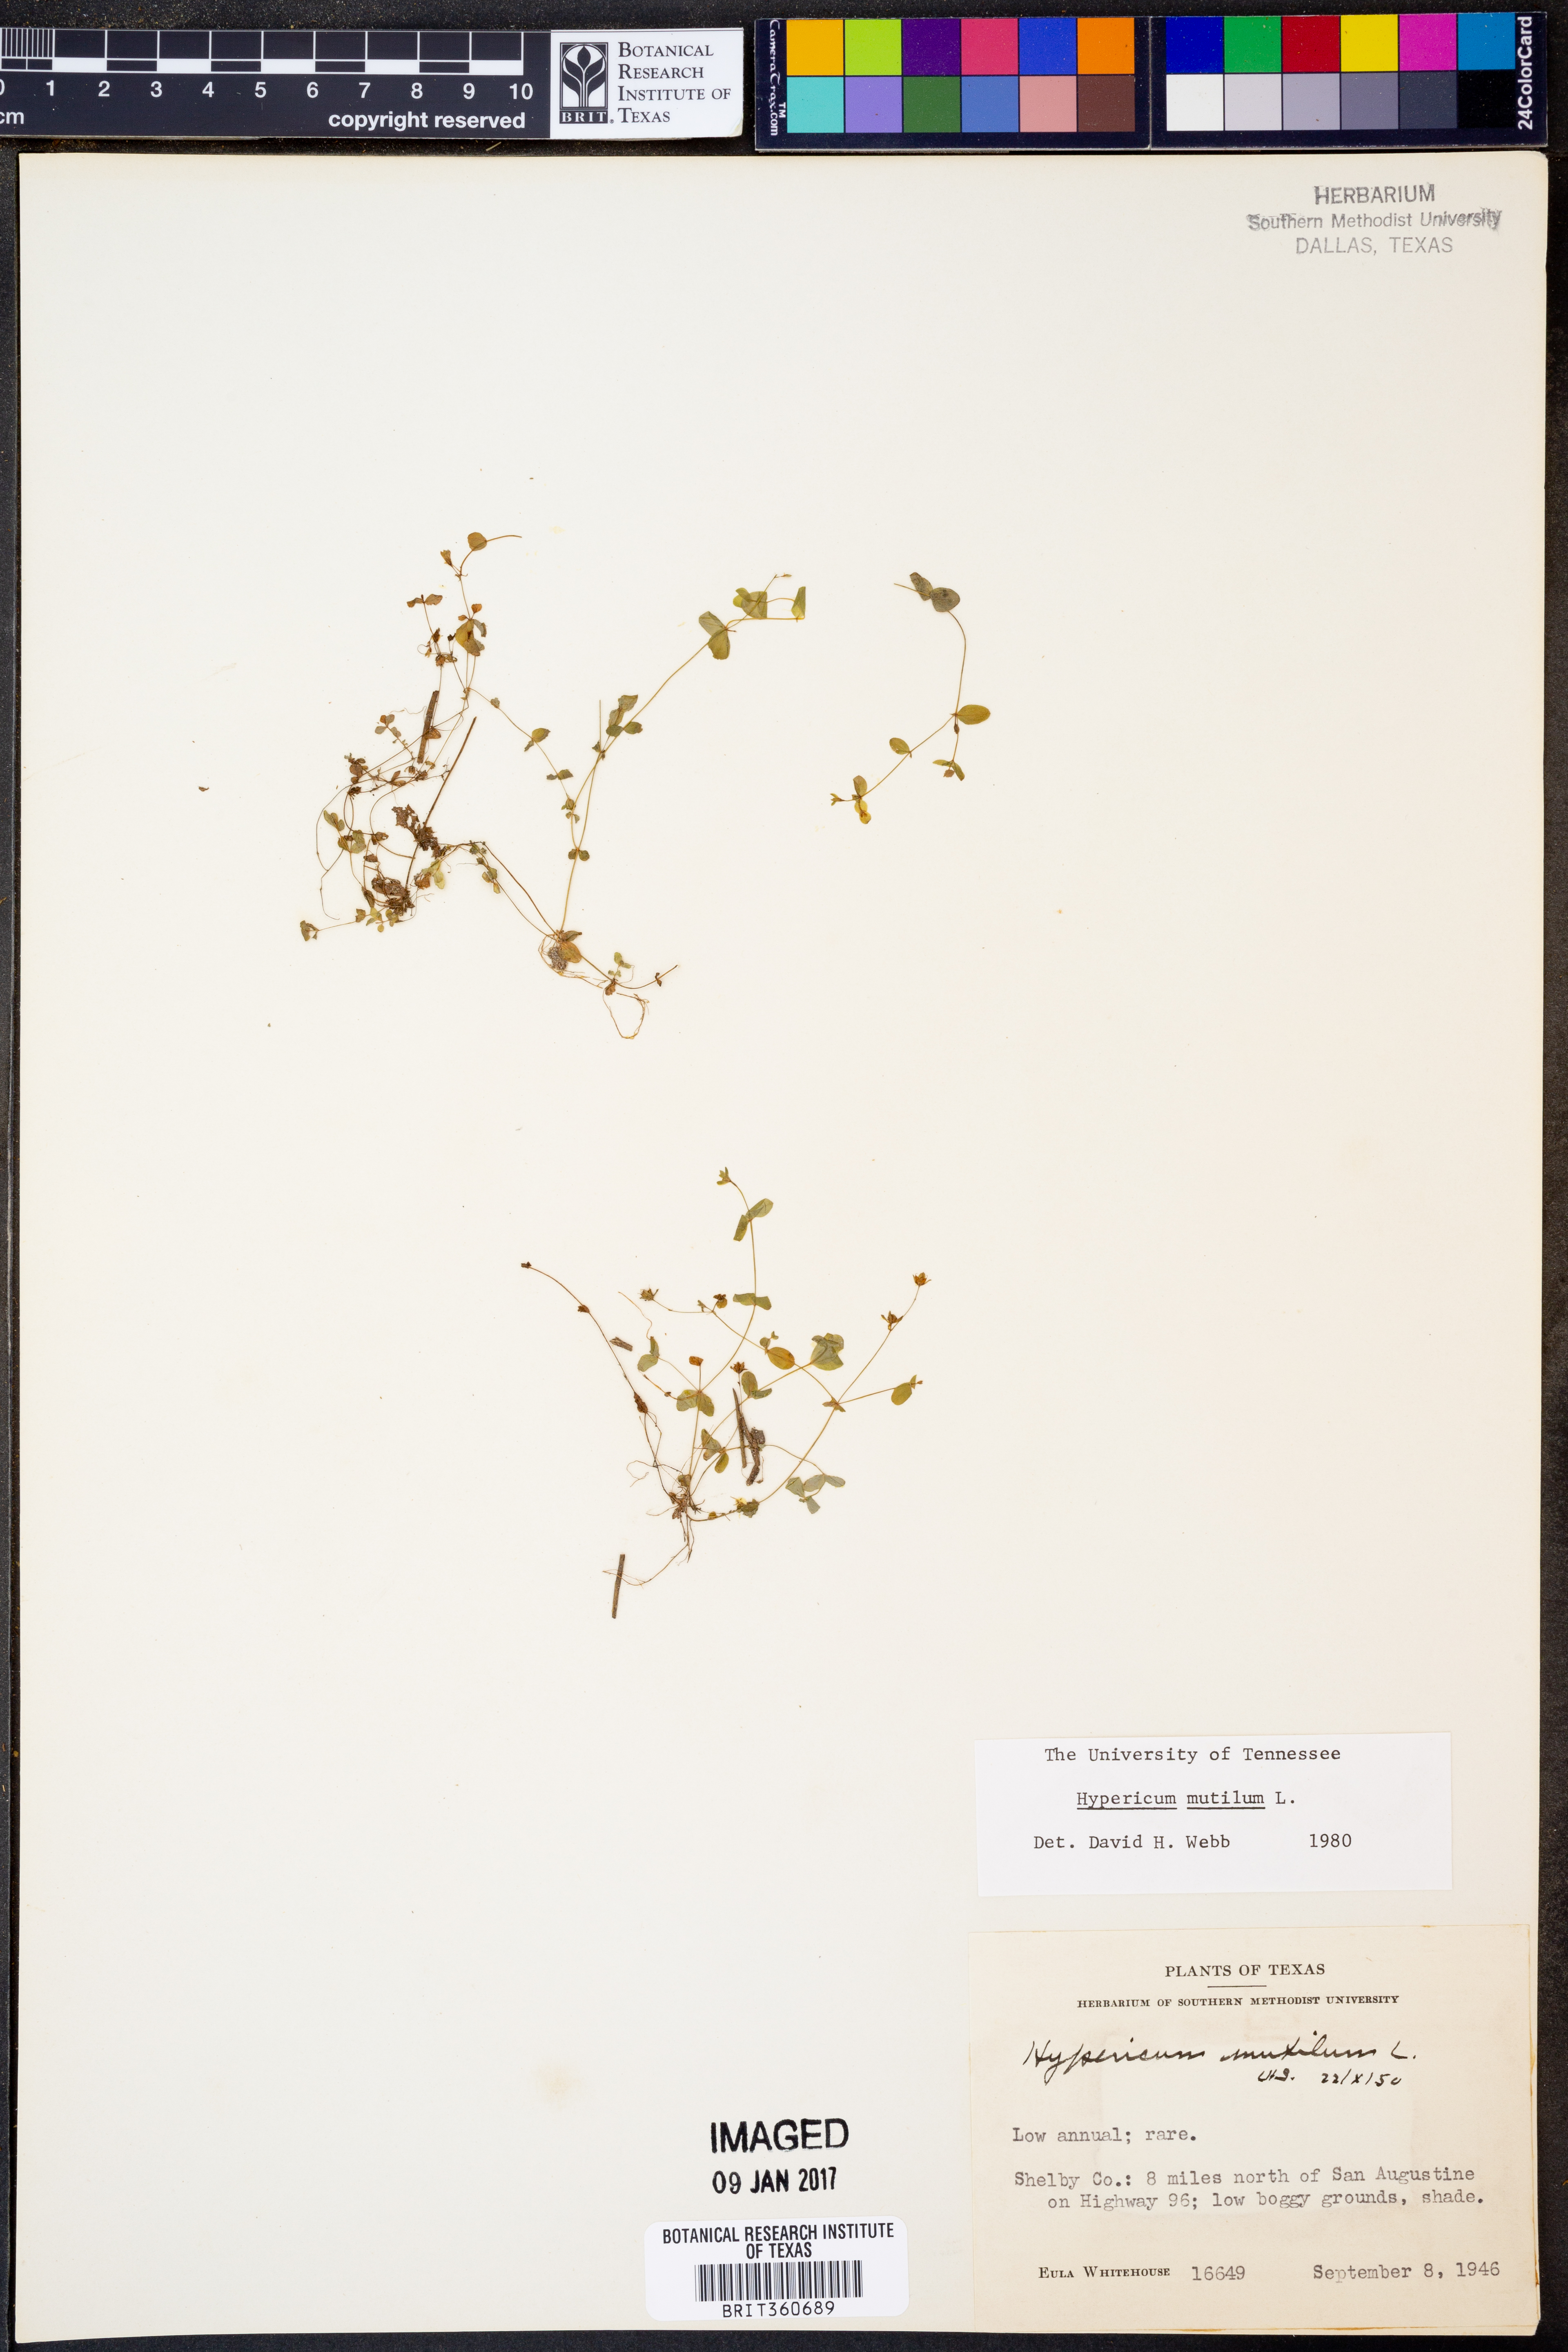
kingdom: Plantae
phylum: Tracheophyta
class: Magnoliopsida
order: Malpighiales
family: Hypericaceae
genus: Hypericum
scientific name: Hypericum mutilum
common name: Dwarf st. john's-wort
